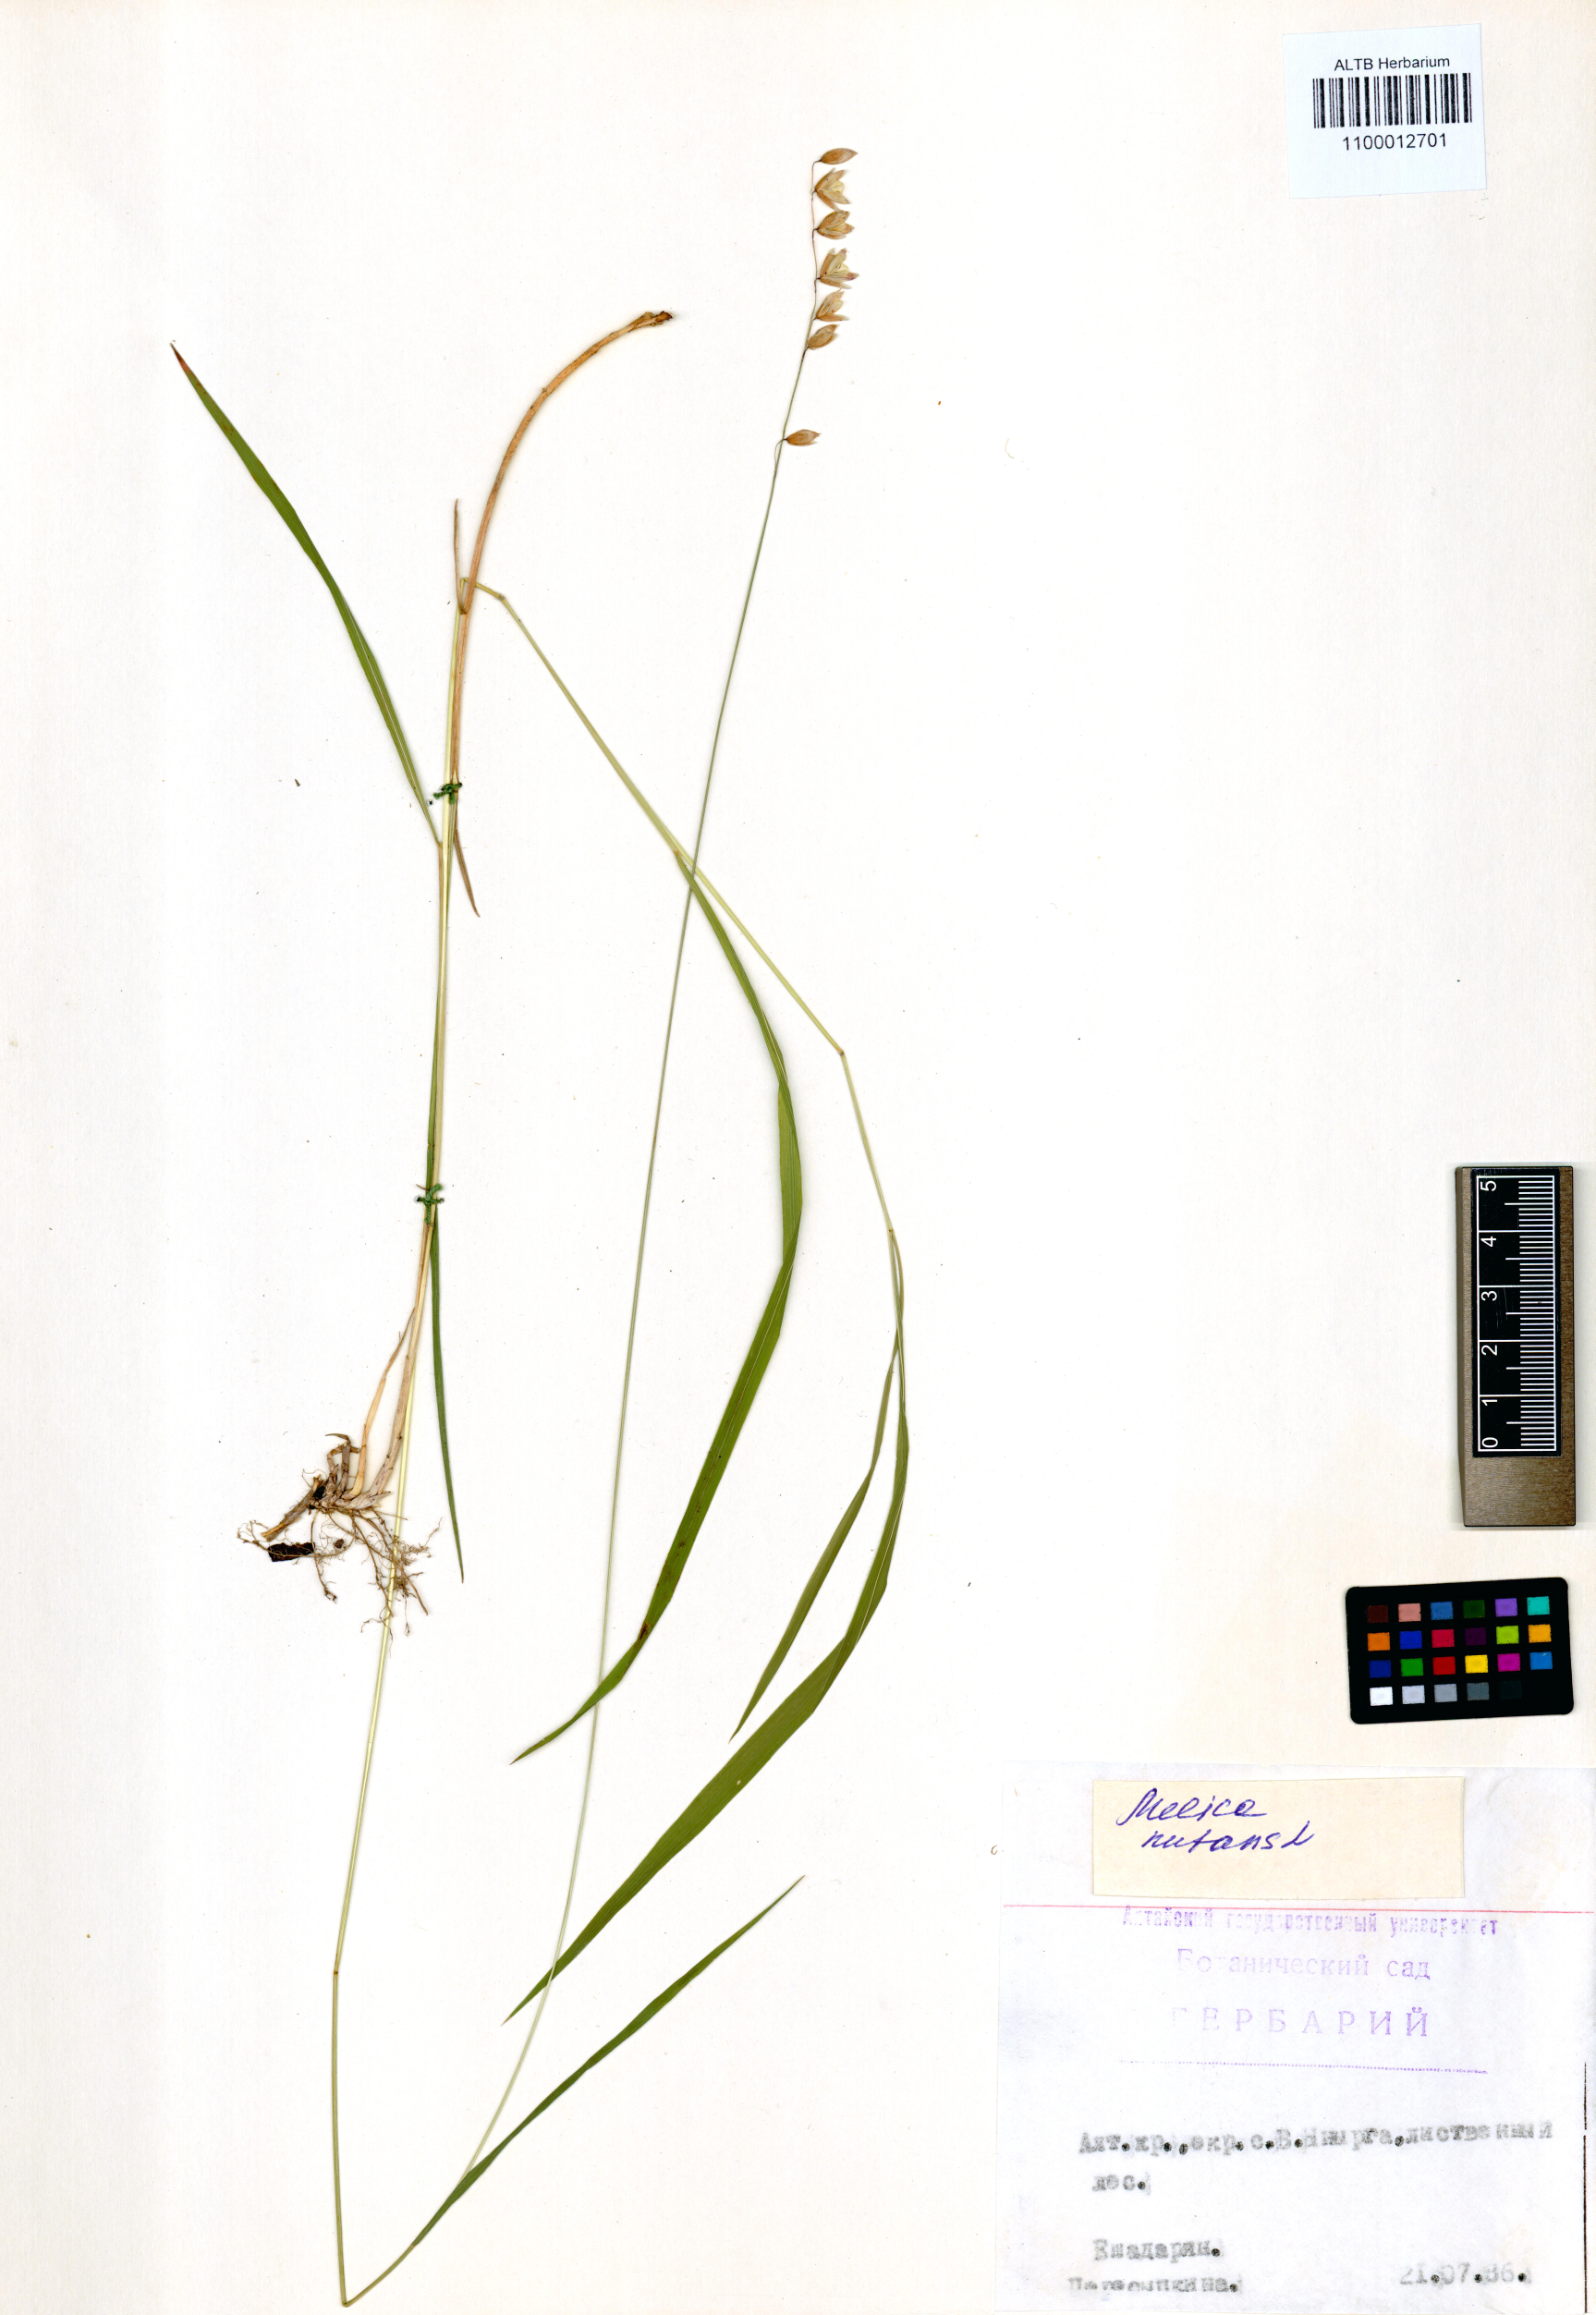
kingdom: Plantae
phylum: Tracheophyta
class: Liliopsida
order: Poales
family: Poaceae
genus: Melica
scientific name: Melica nutans
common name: Mountain melick
